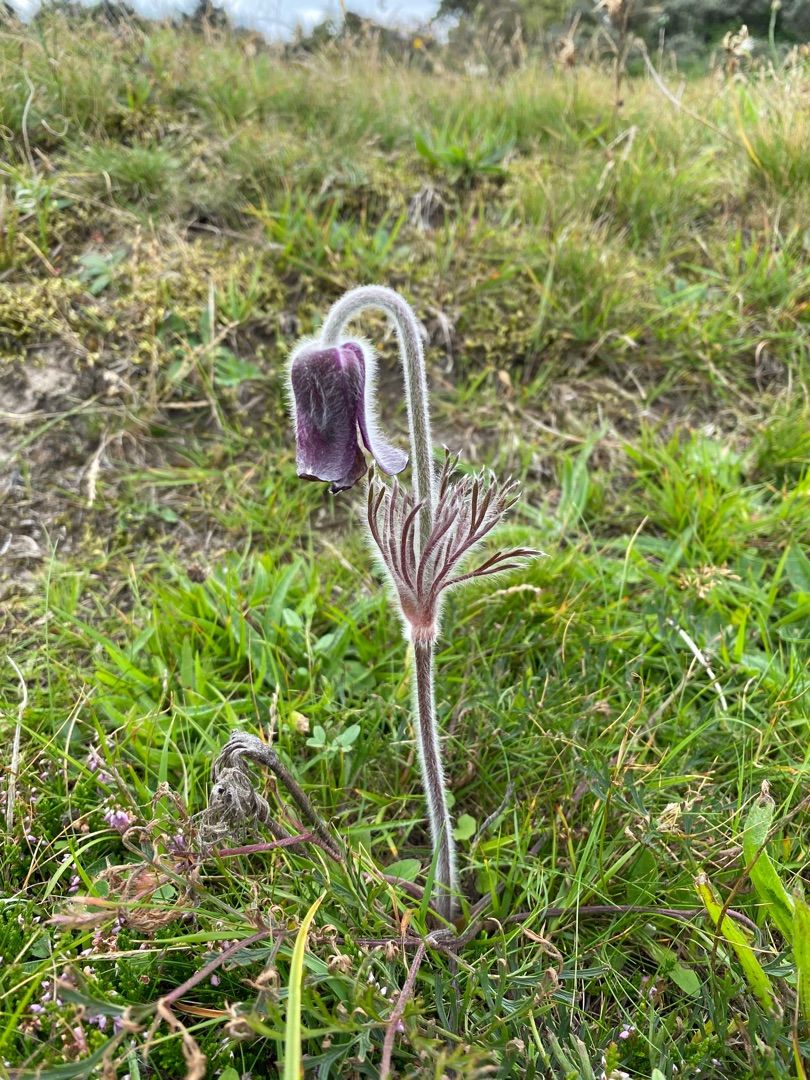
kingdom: Plantae
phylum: Tracheophyta
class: Magnoliopsida
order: Ranunculales
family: Ranunculaceae
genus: Pulsatilla
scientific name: Pulsatilla pratensis
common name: Nikkende kobjælde
